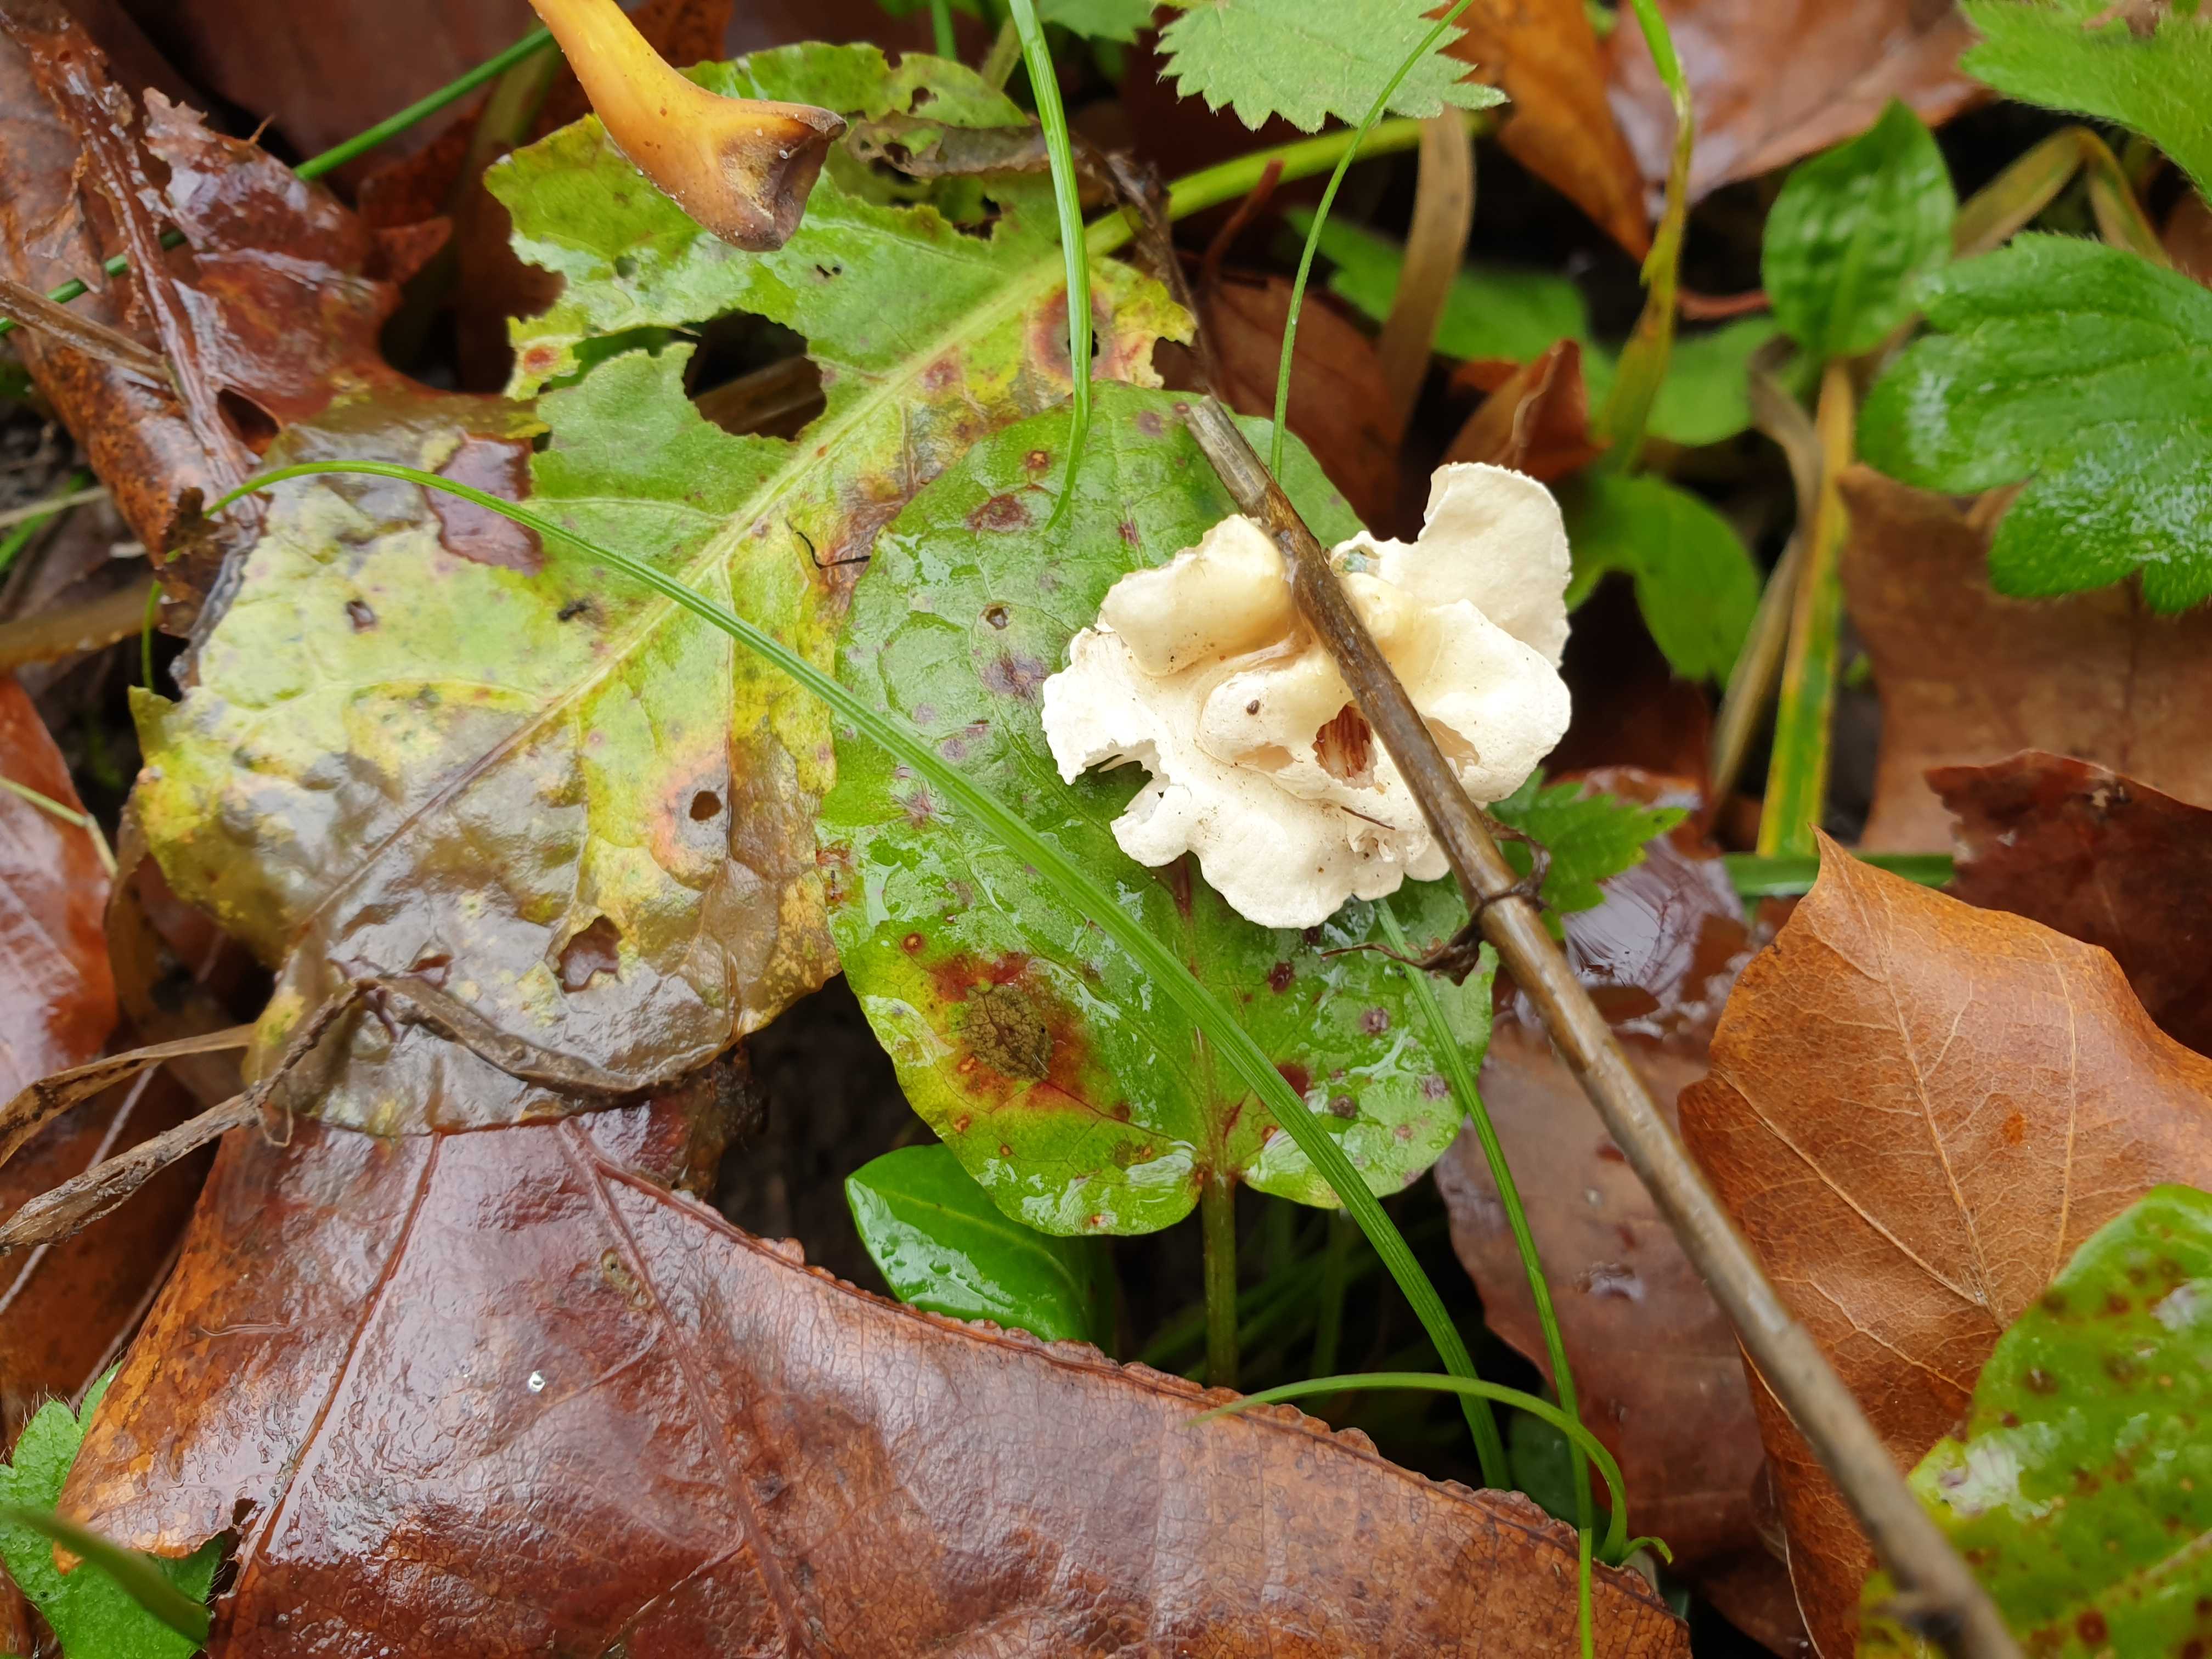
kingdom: Fungi
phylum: Basidiomycota
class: Agaricomycetes
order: Agaricales
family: Crepidotaceae
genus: Crepidotus
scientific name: Crepidotus luteolus
